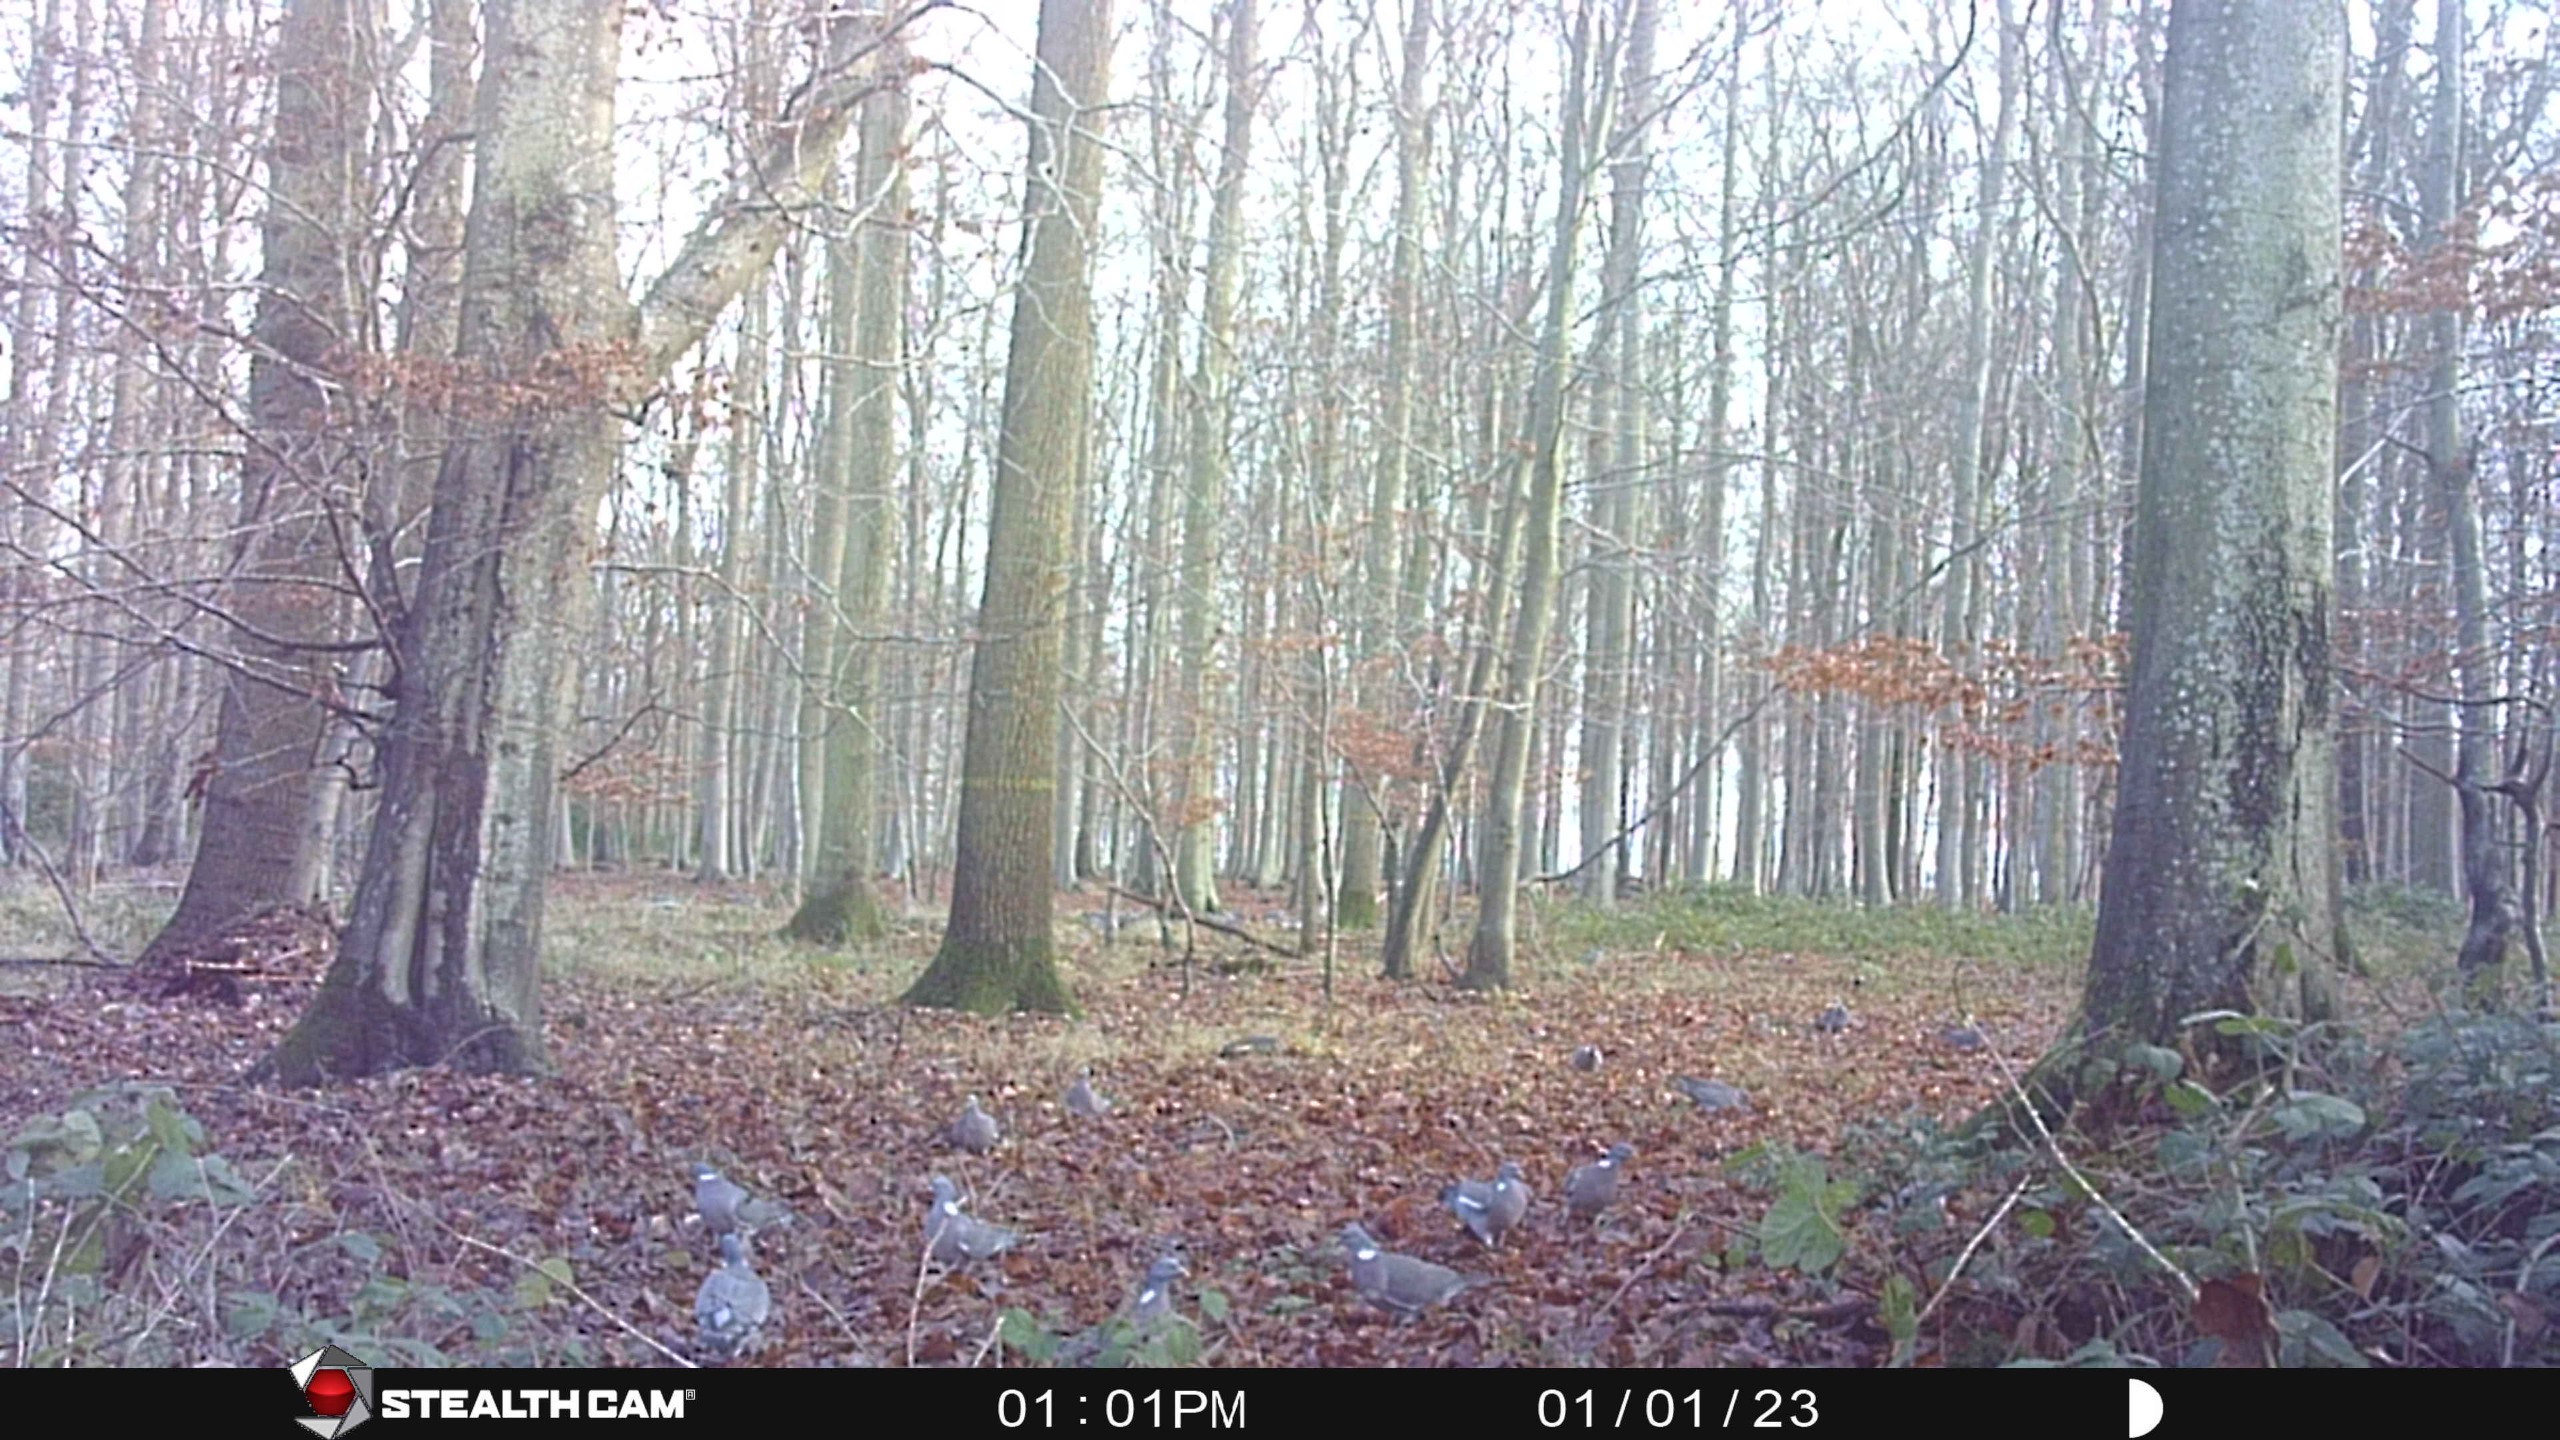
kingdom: Animalia
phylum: Chordata
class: Aves
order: Columbiformes
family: Columbidae
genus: Columba
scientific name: Columba palumbus
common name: Ringdue
